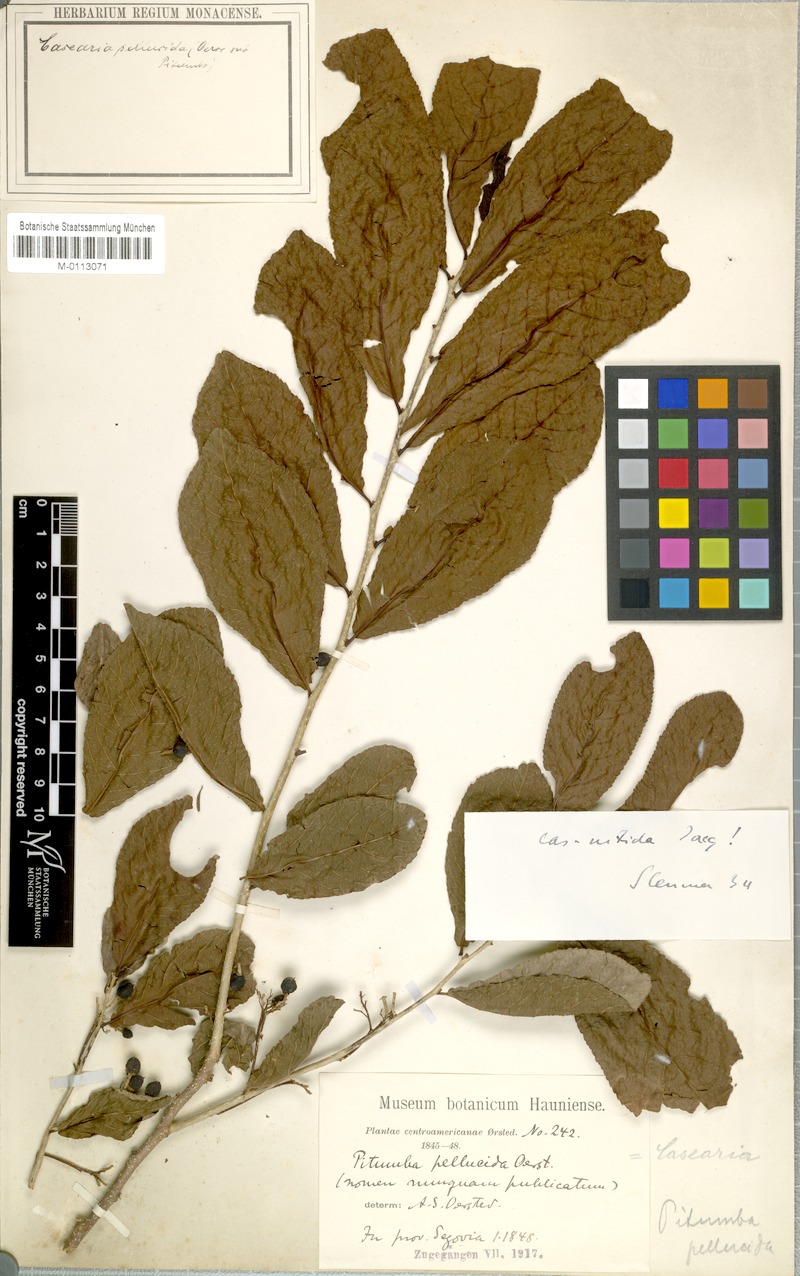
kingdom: Plantae
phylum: Tracheophyta
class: Magnoliopsida
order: Malpighiales
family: Salicaceae
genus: Casearia
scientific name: Casearia corymbosa
